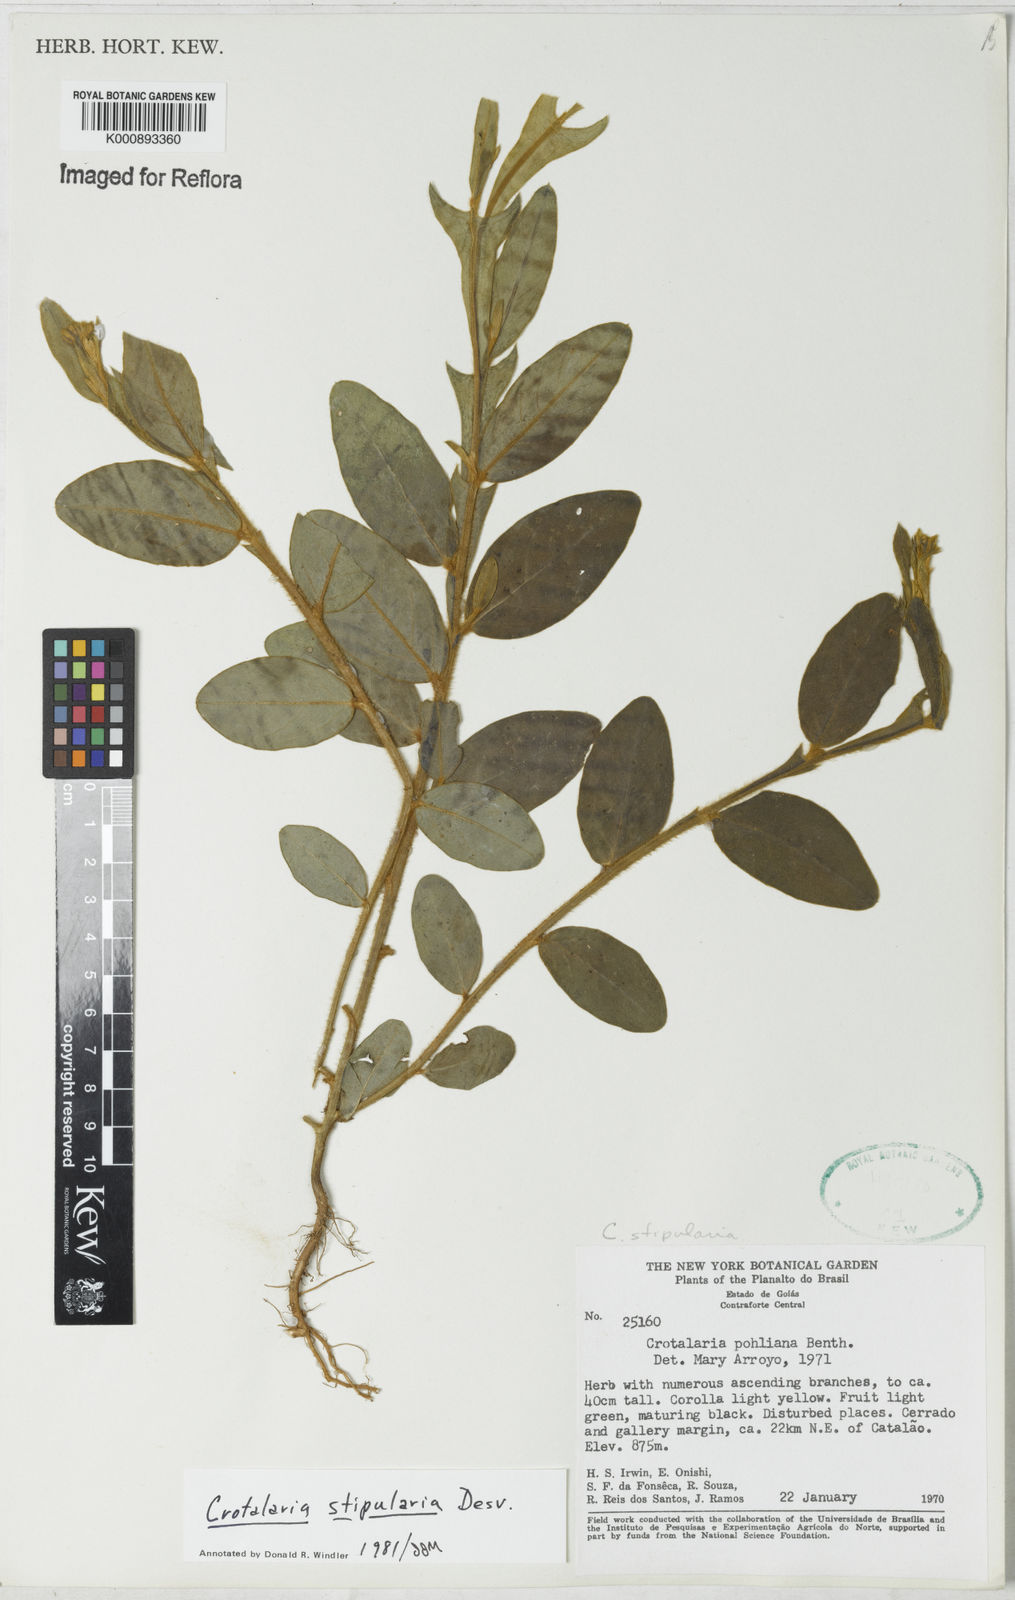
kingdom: Plantae
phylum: Tracheophyta
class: Magnoliopsida
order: Fabales
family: Fabaceae
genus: Crotalaria
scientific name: Crotalaria stipularia
